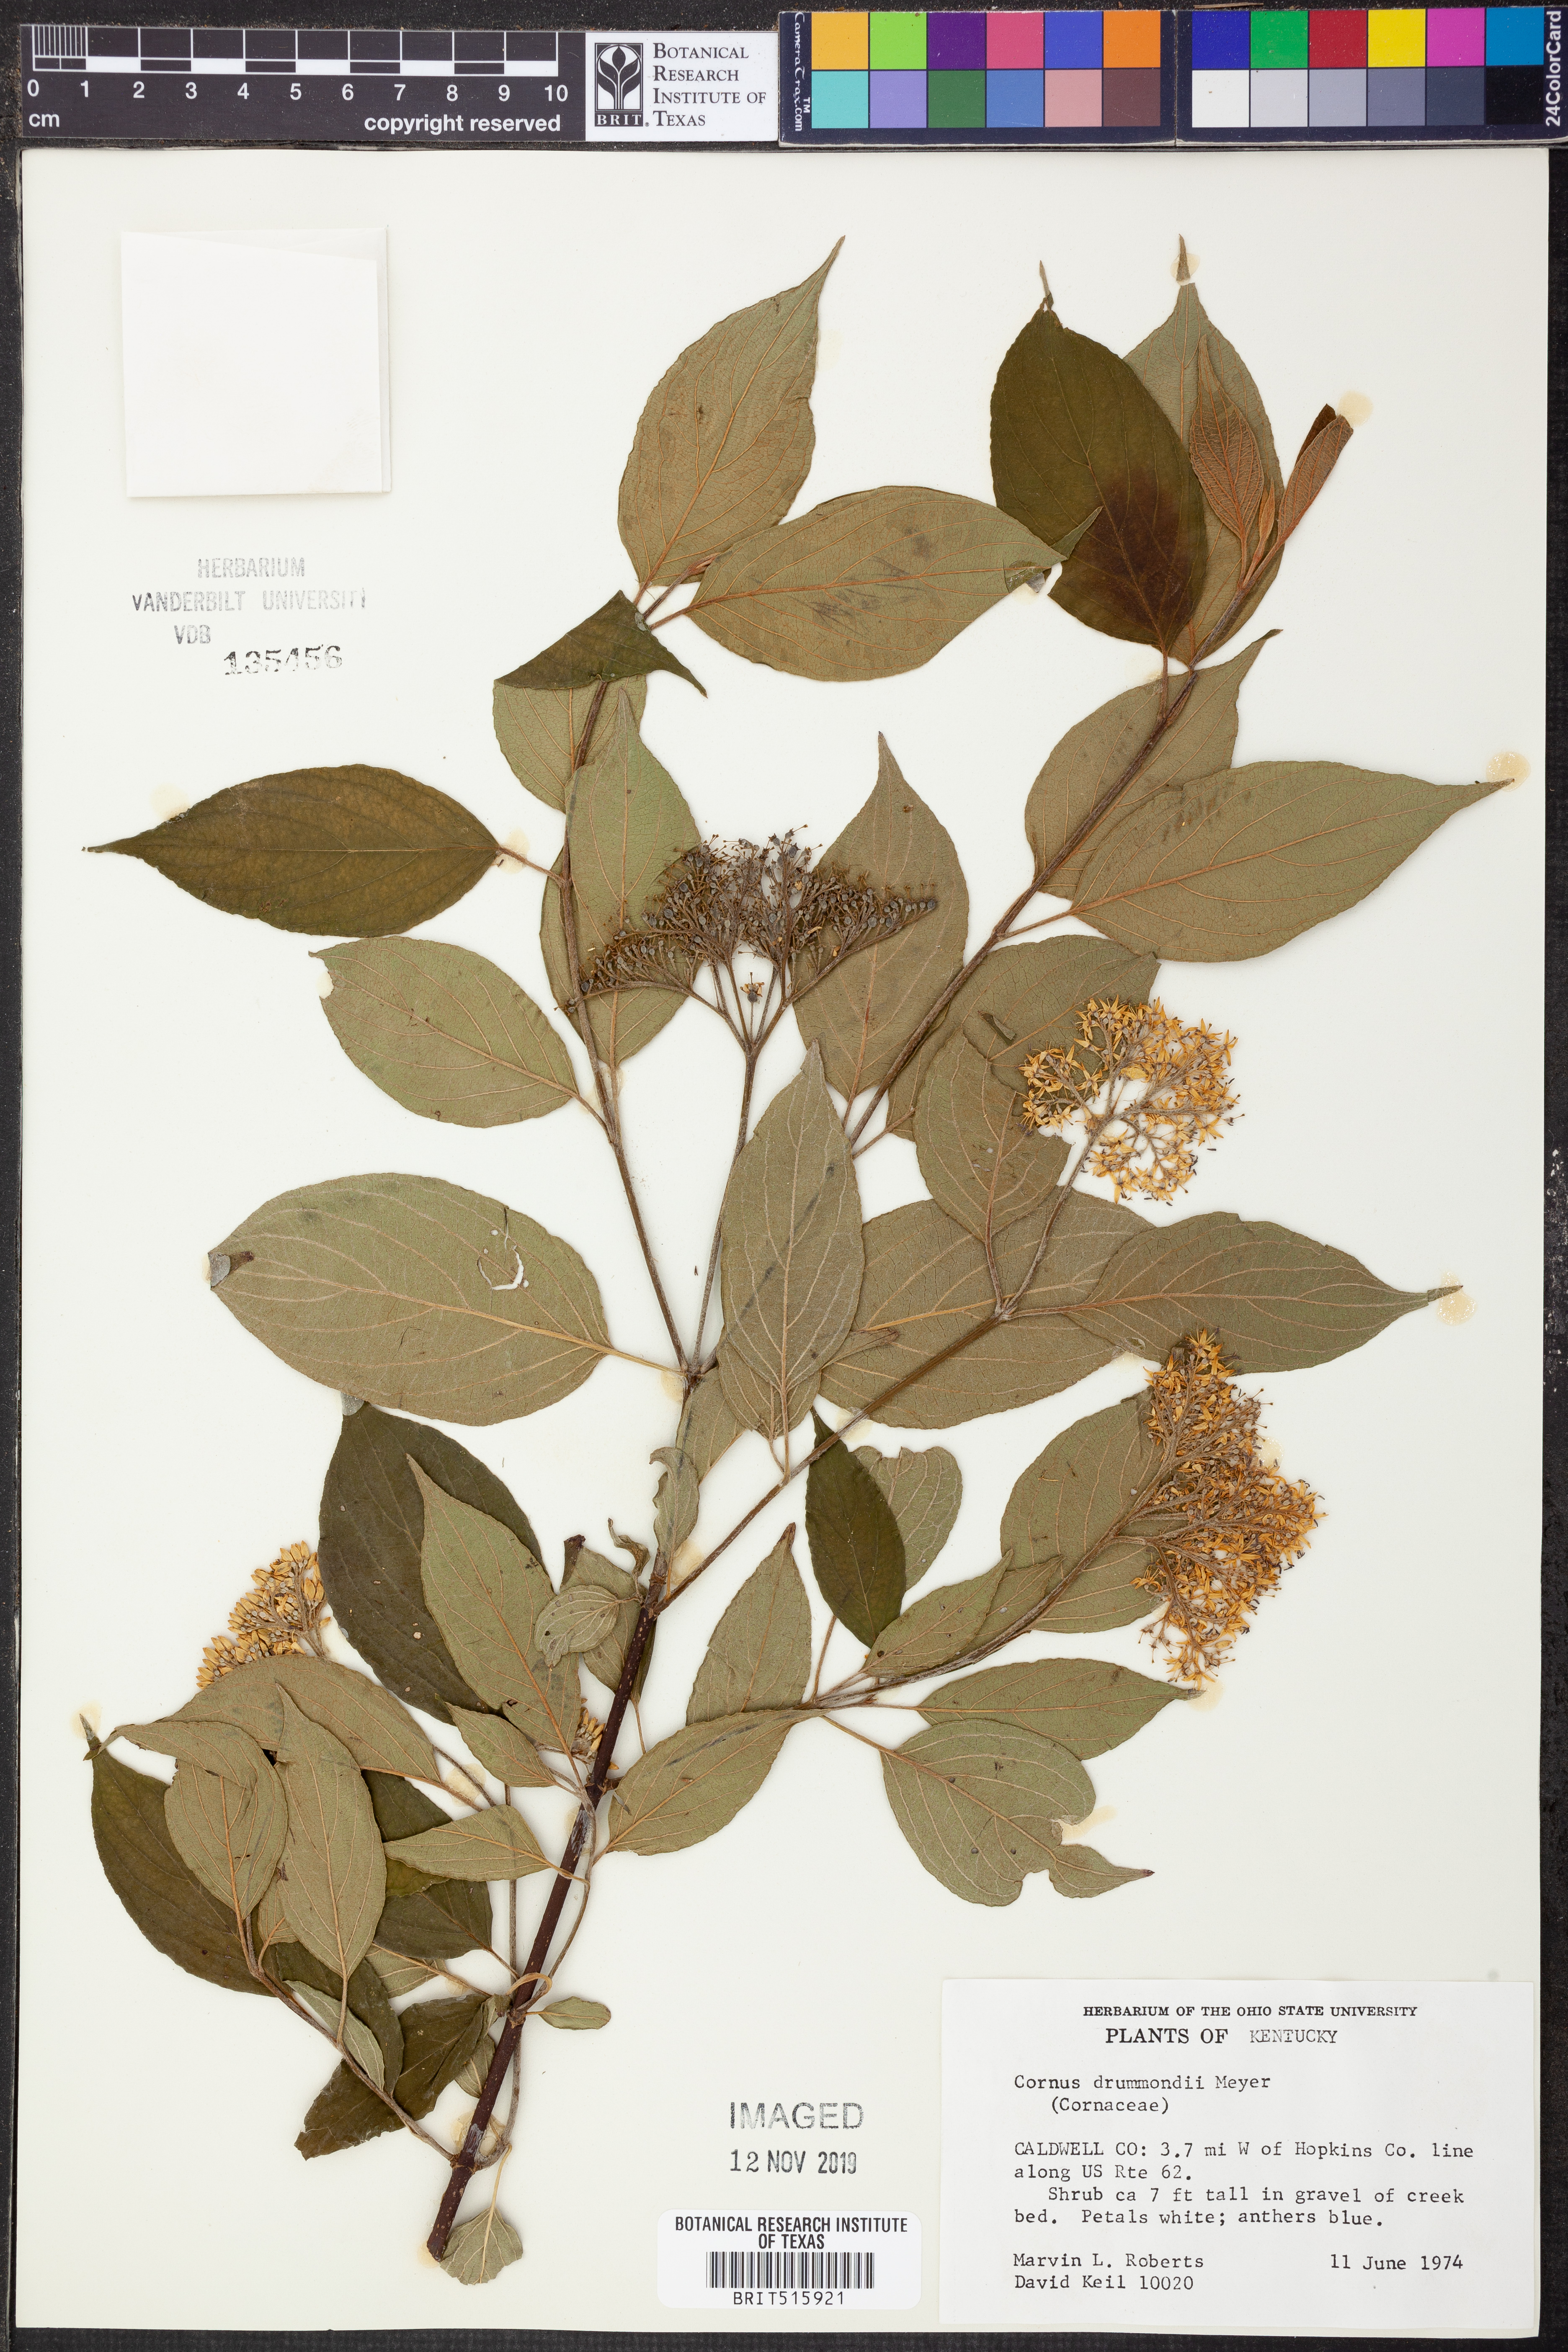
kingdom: Plantae
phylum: Tracheophyta
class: Magnoliopsida
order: Cornales
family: Cornaceae
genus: Cornus
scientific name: Cornus drummondii
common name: Rough-leaf dogwood
